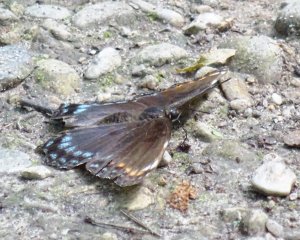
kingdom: Animalia
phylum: Arthropoda
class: Insecta
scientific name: Insecta
